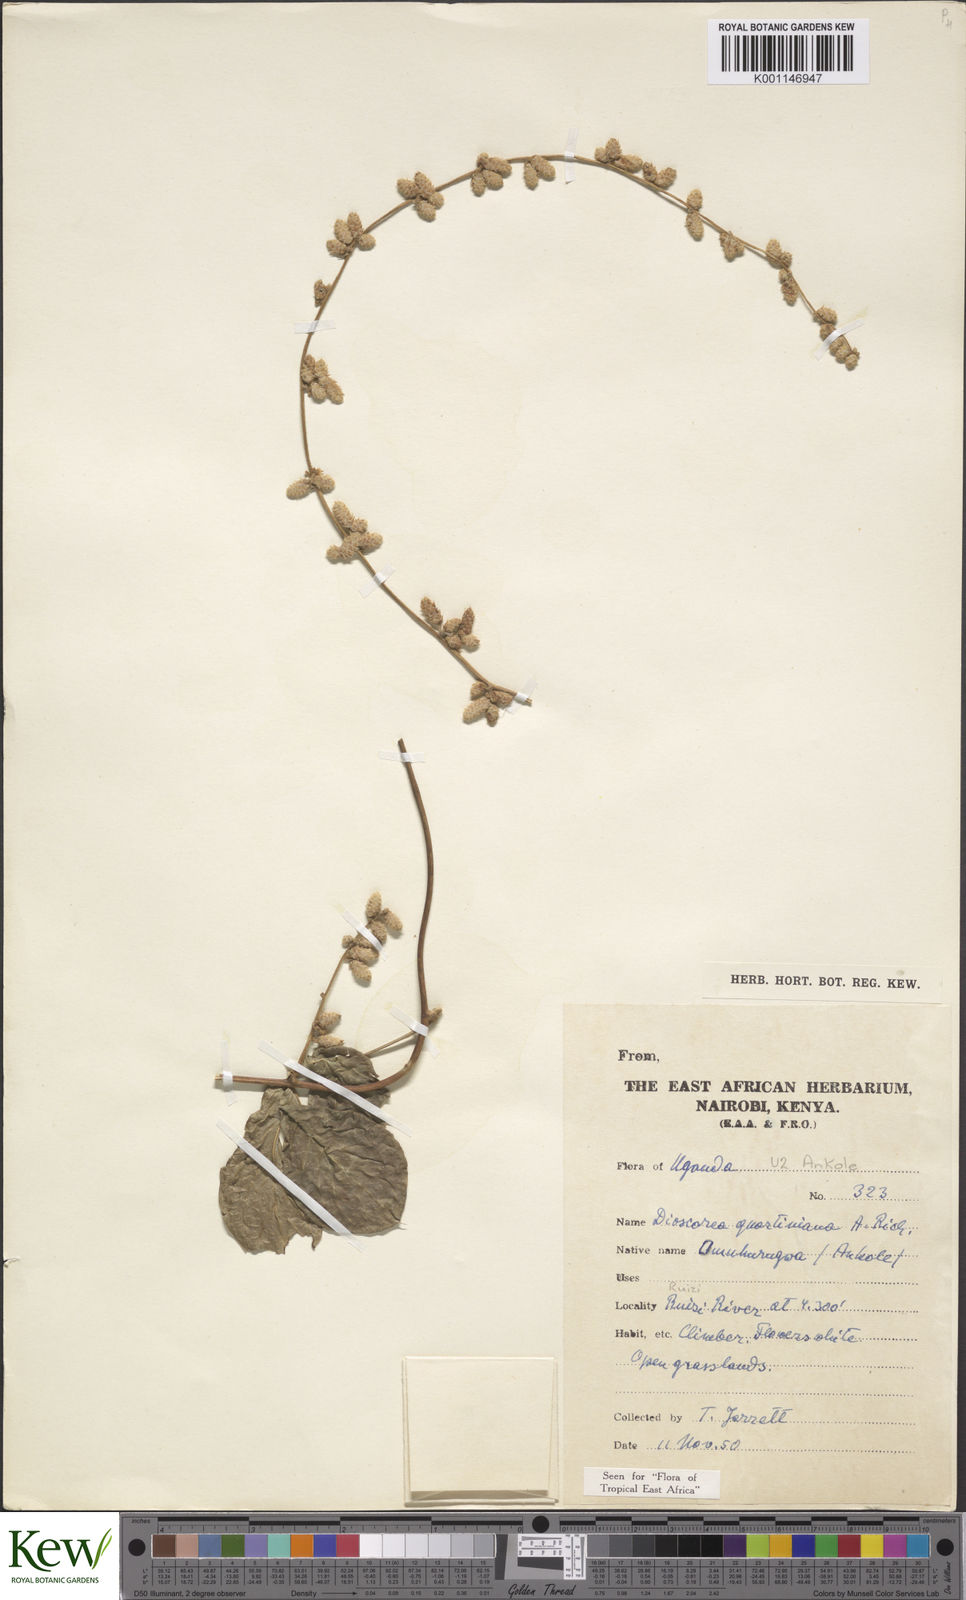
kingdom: Plantae
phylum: Tracheophyta
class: Liliopsida
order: Dioscoreales
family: Dioscoreaceae
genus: Dioscorea
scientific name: Dioscorea quartiniana
